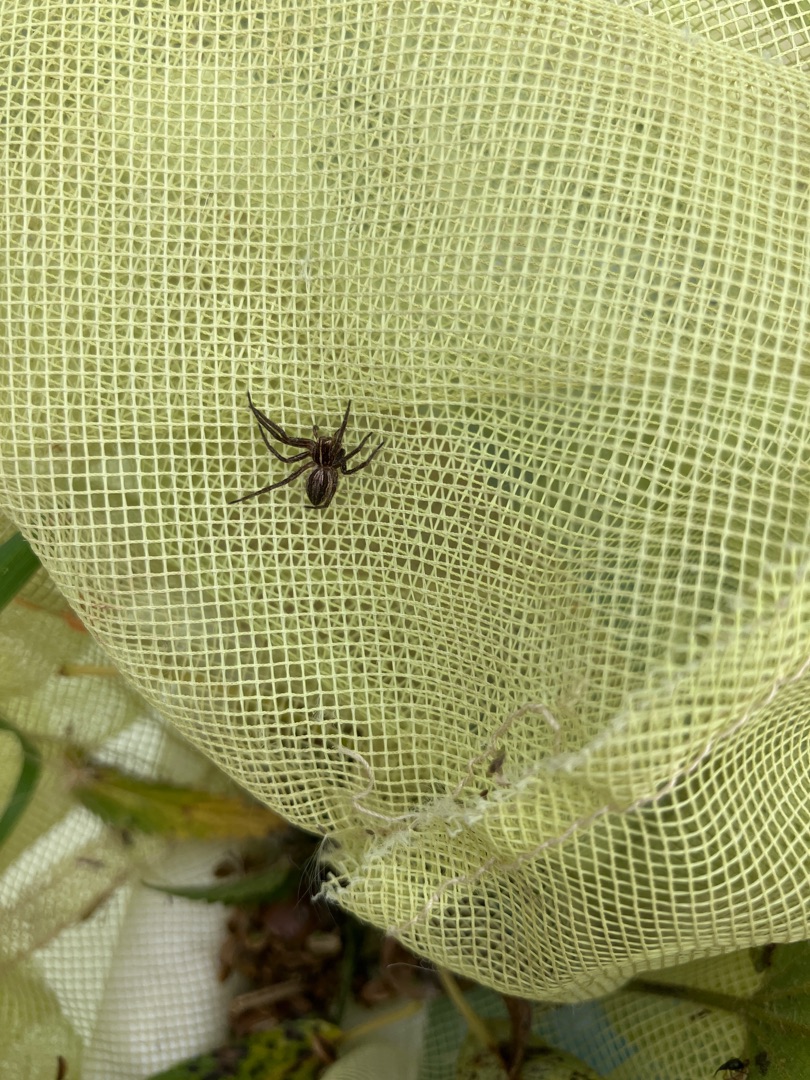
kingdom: Animalia
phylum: Arthropoda
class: Arachnida
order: Araneae
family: Pisauridae
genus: Pisaura
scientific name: Pisaura mirabilis
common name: Almindelig rovedderkop
